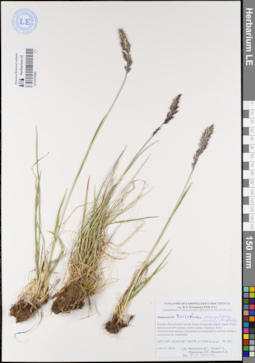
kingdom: Plantae
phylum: Tracheophyta
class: Liliopsida
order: Poales
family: Poaceae
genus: Koeleria
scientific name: Koeleria spicata
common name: Mountain trisetum
